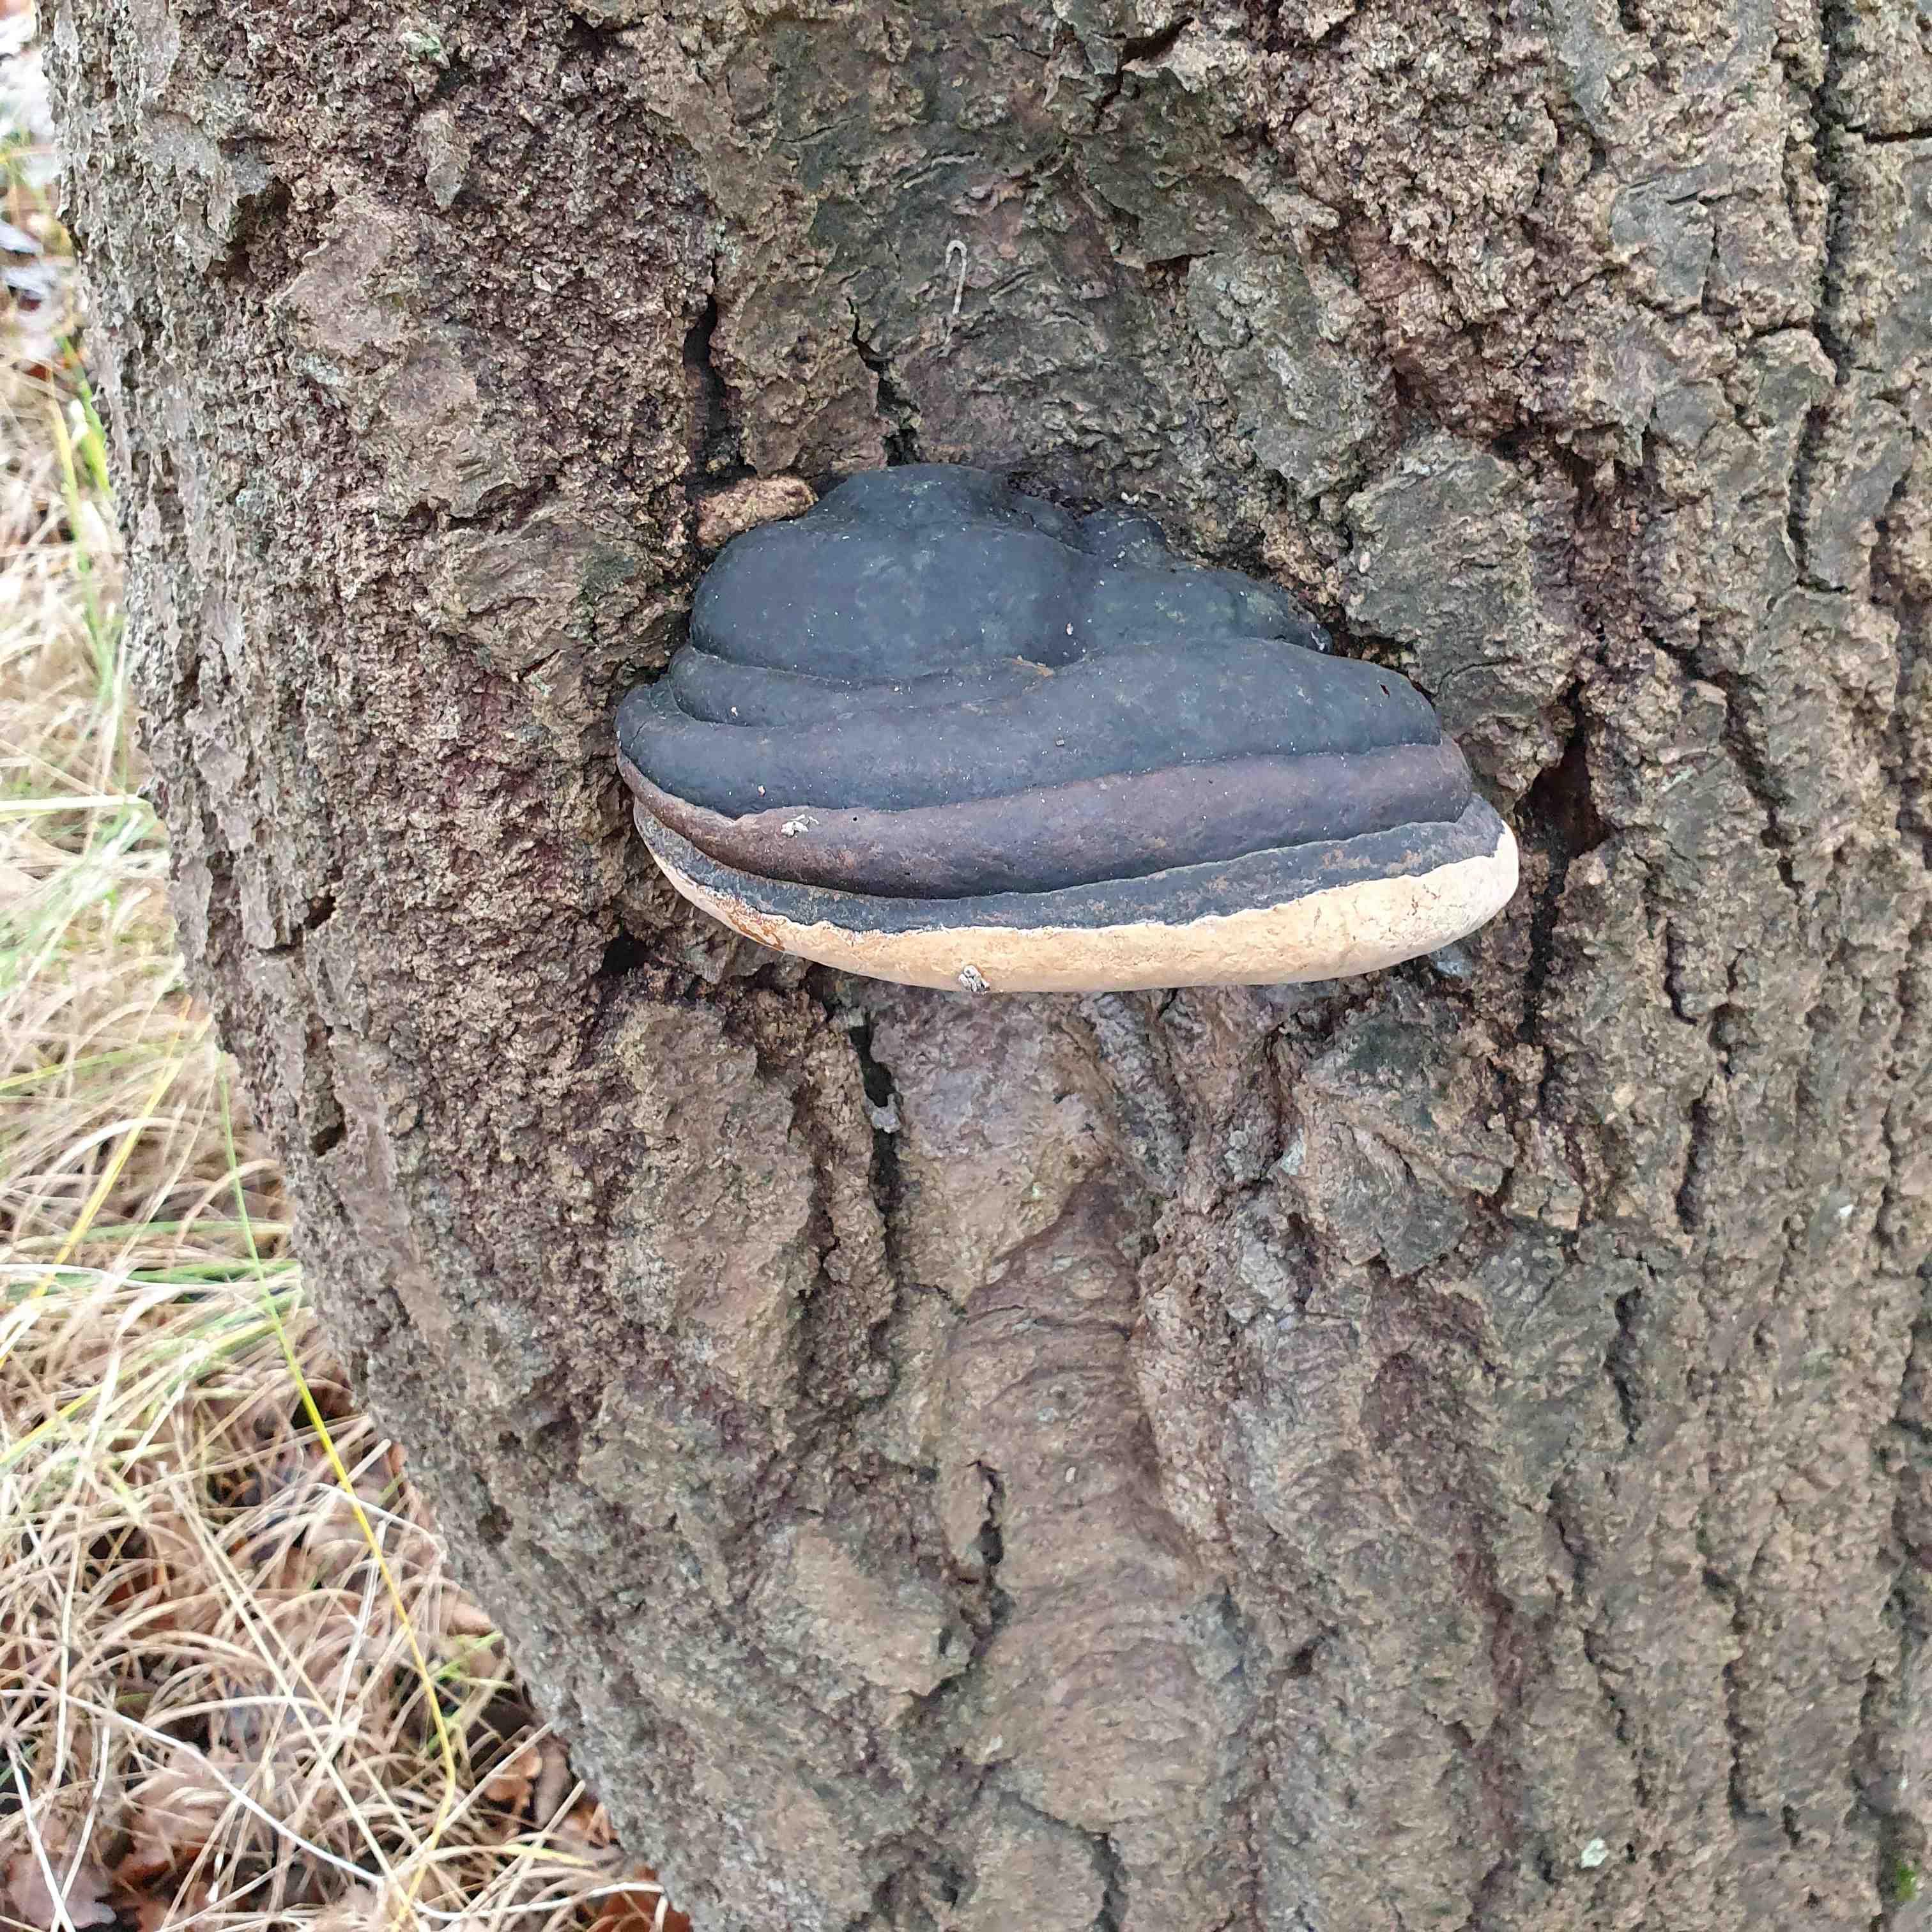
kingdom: Fungi
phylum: Basidiomycota
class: Agaricomycetes
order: Hymenochaetales
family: Hymenochaetaceae
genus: Phellinus
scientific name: Phellinus populicola
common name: poppel-ildporesvamp
